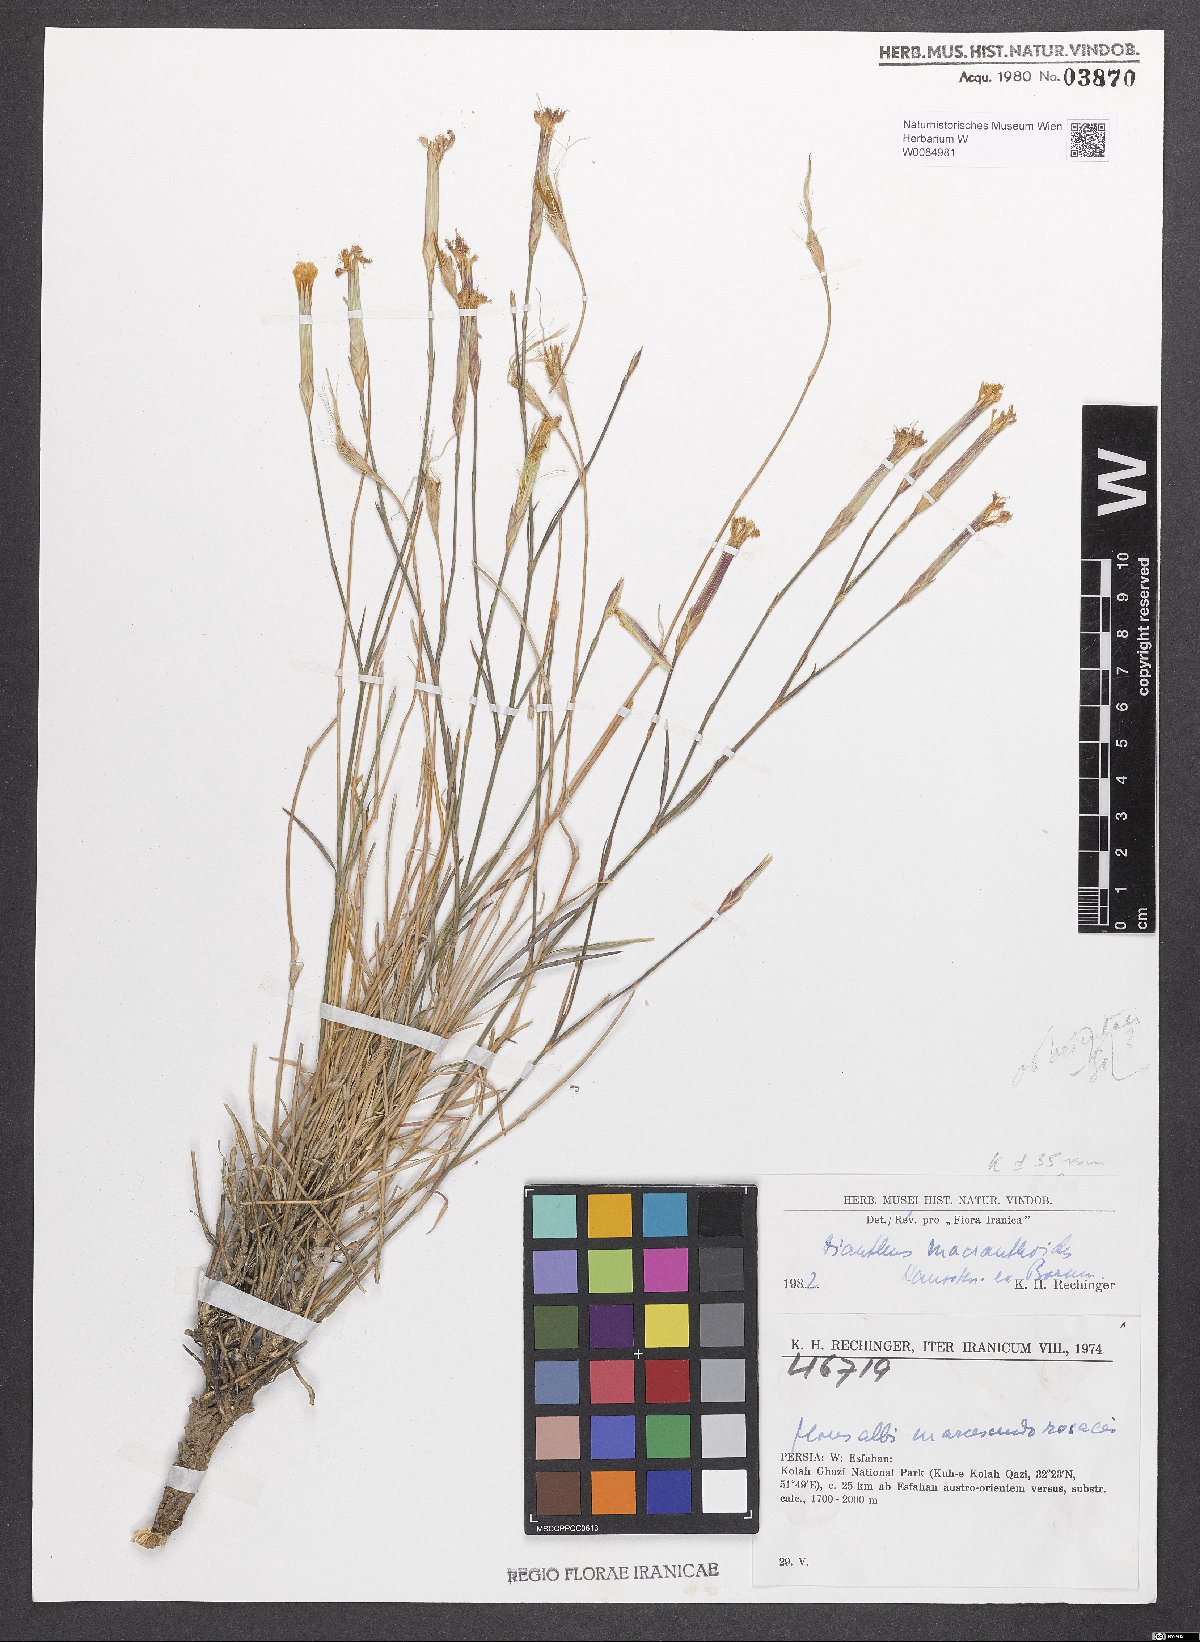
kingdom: Plantae
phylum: Tracheophyta
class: Magnoliopsida
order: Caryophyllales
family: Caryophyllaceae
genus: Dianthus
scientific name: Dianthus macranthoides
